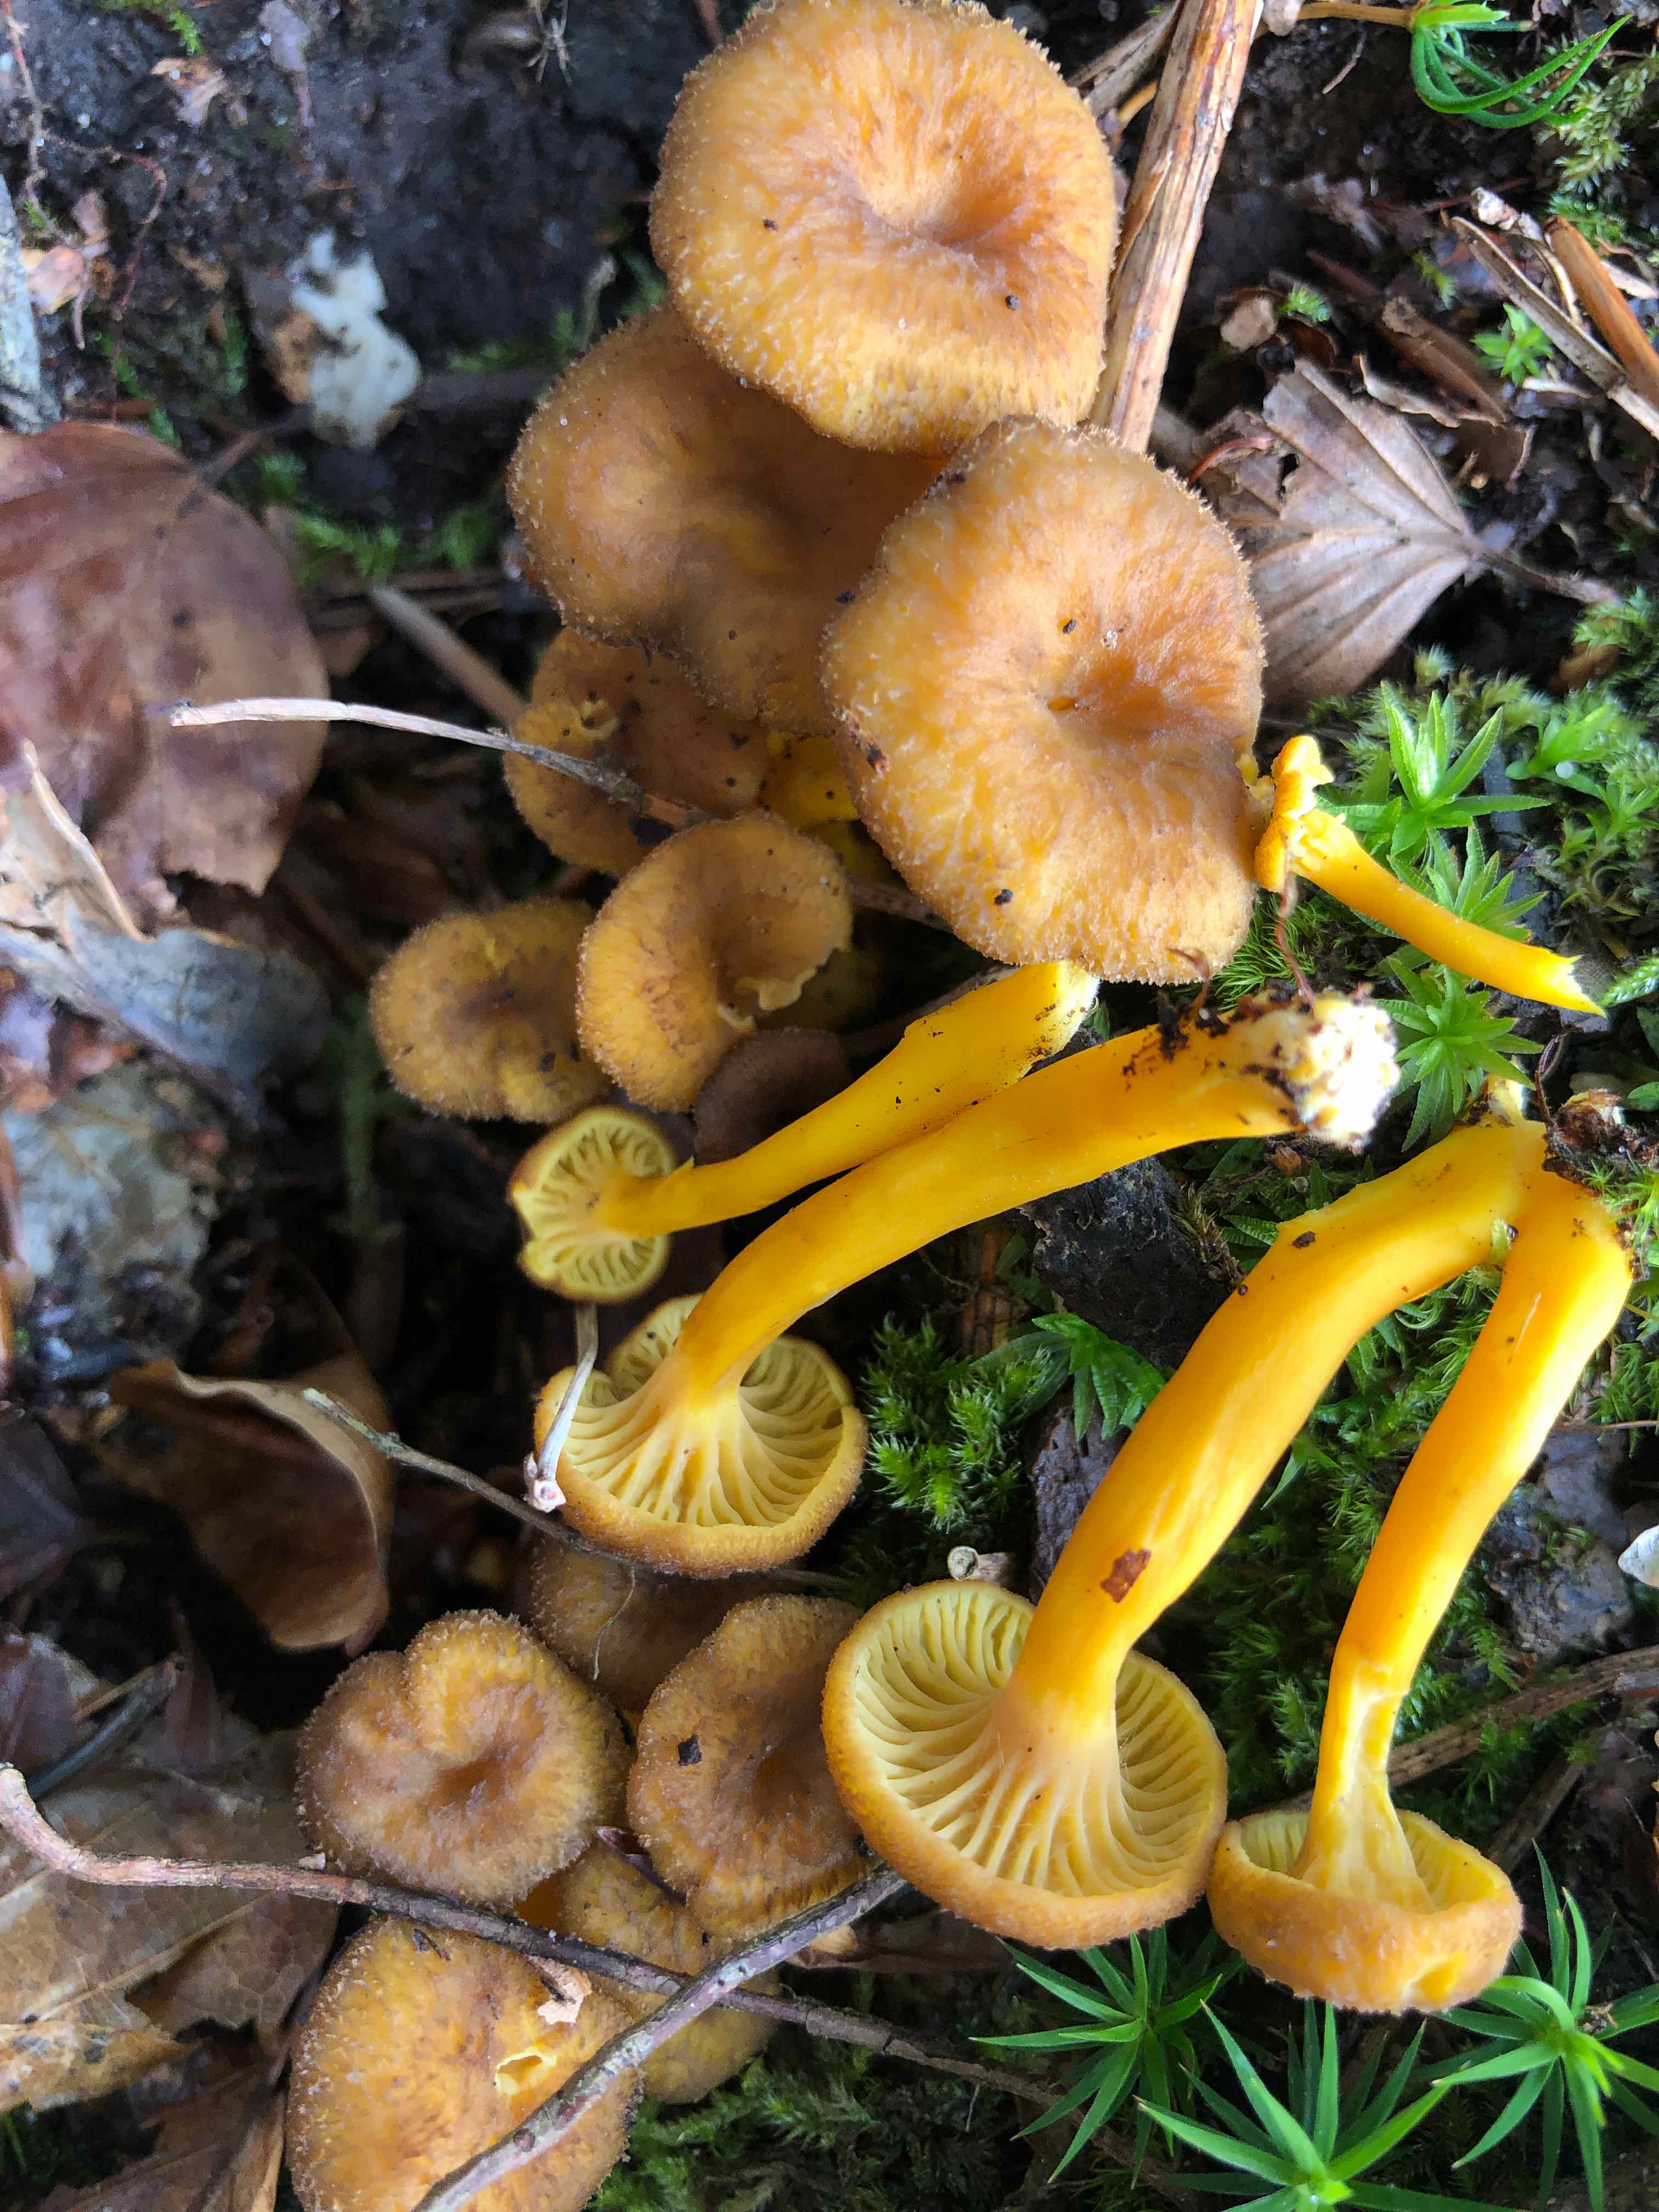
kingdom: Fungi
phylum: Basidiomycota
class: Agaricomycetes
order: Cantharellales
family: Hydnaceae
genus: Craterellus
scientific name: Craterellus tubaeformis
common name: tragt-kantarel
